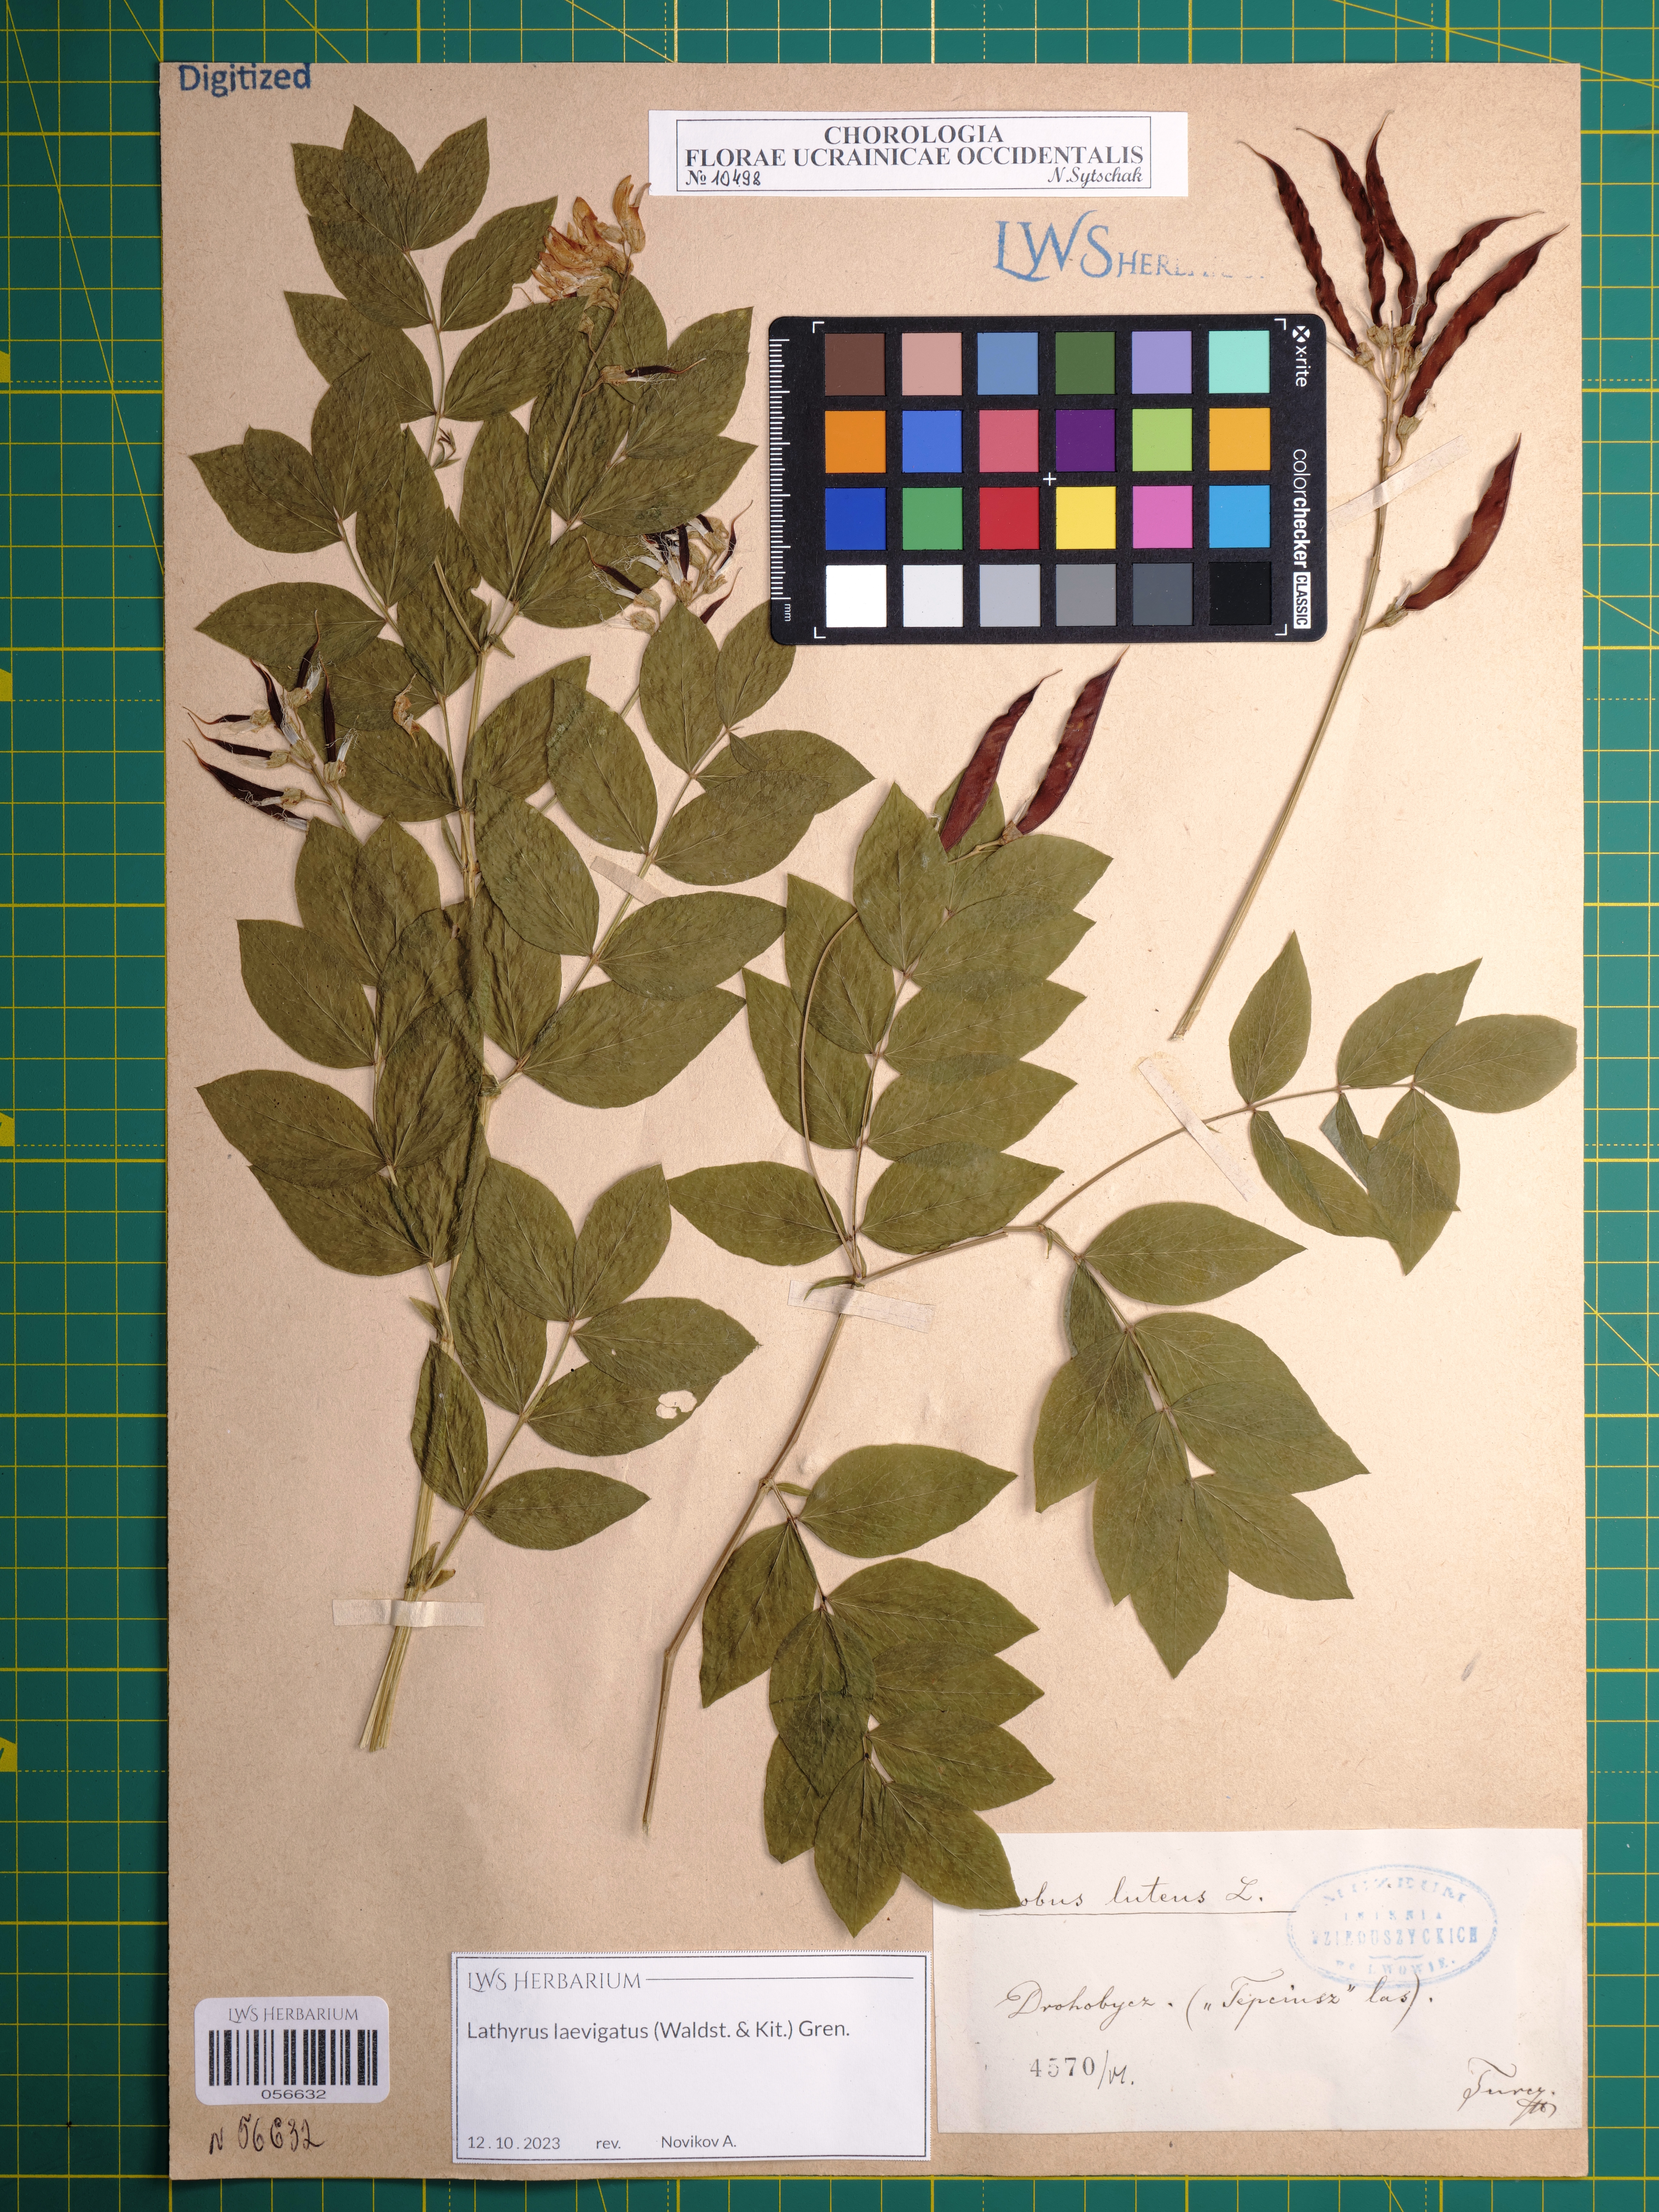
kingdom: Plantae
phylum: Tracheophyta
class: Magnoliopsida
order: Fabales
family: Fabaceae
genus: Lathyrus
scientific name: Lathyrus laevigatus
